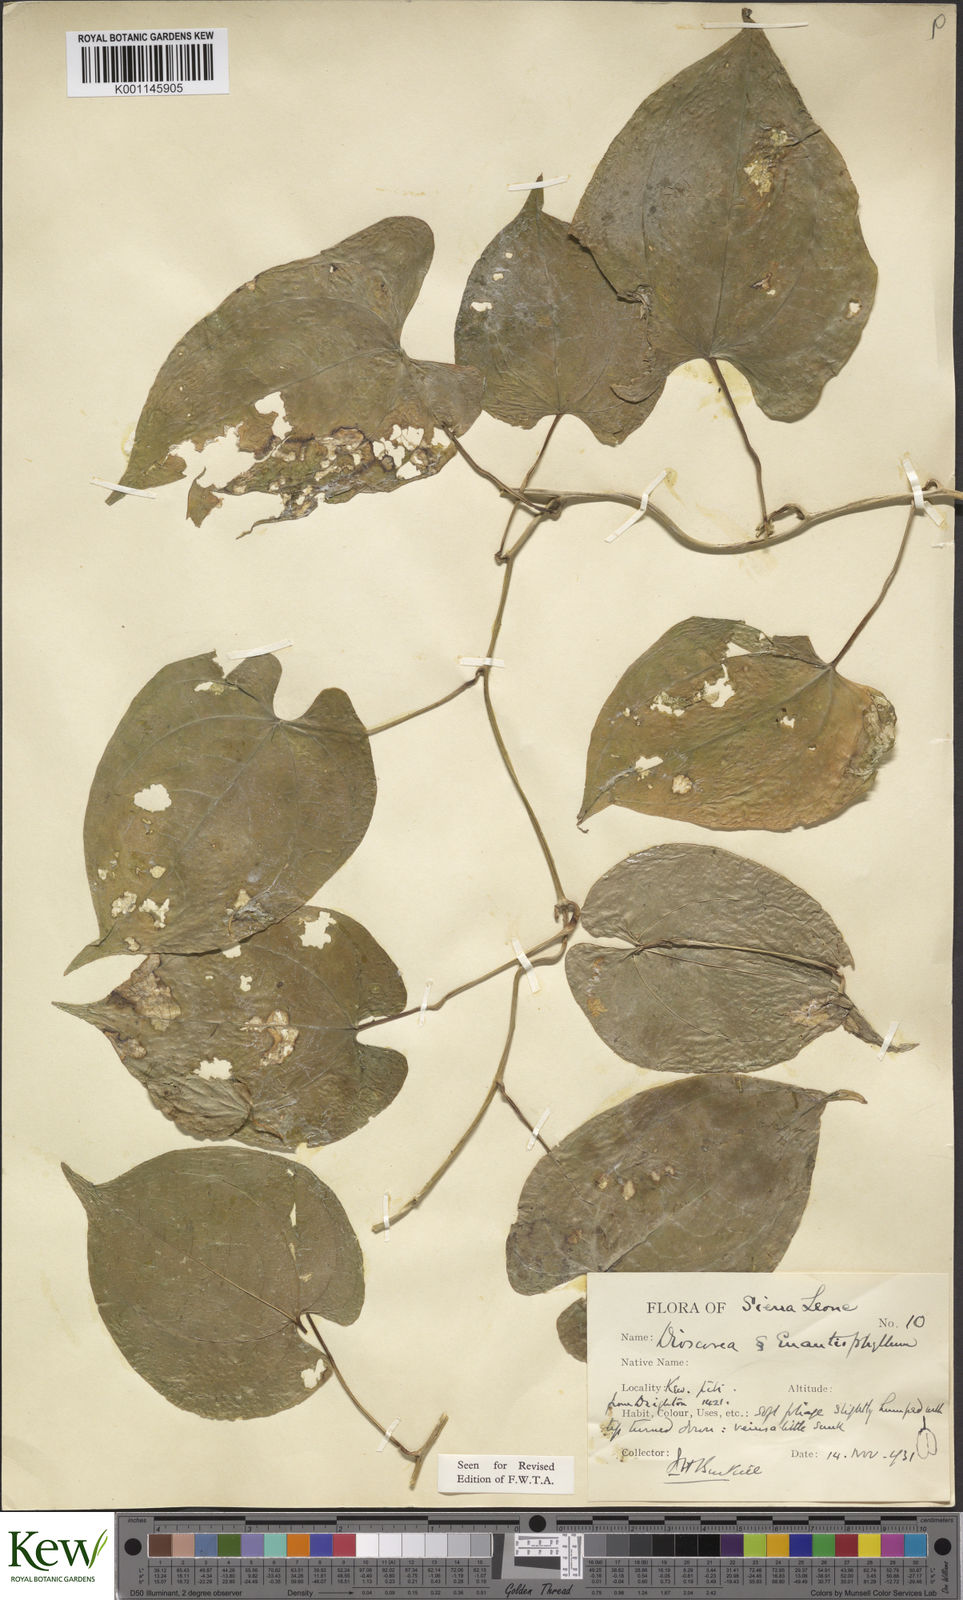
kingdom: Plantae
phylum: Tracheophyta
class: Liliopsida
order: Dioscoreales
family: Dioscoreaceae
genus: Dioscorea
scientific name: Dioscorea togoensis
